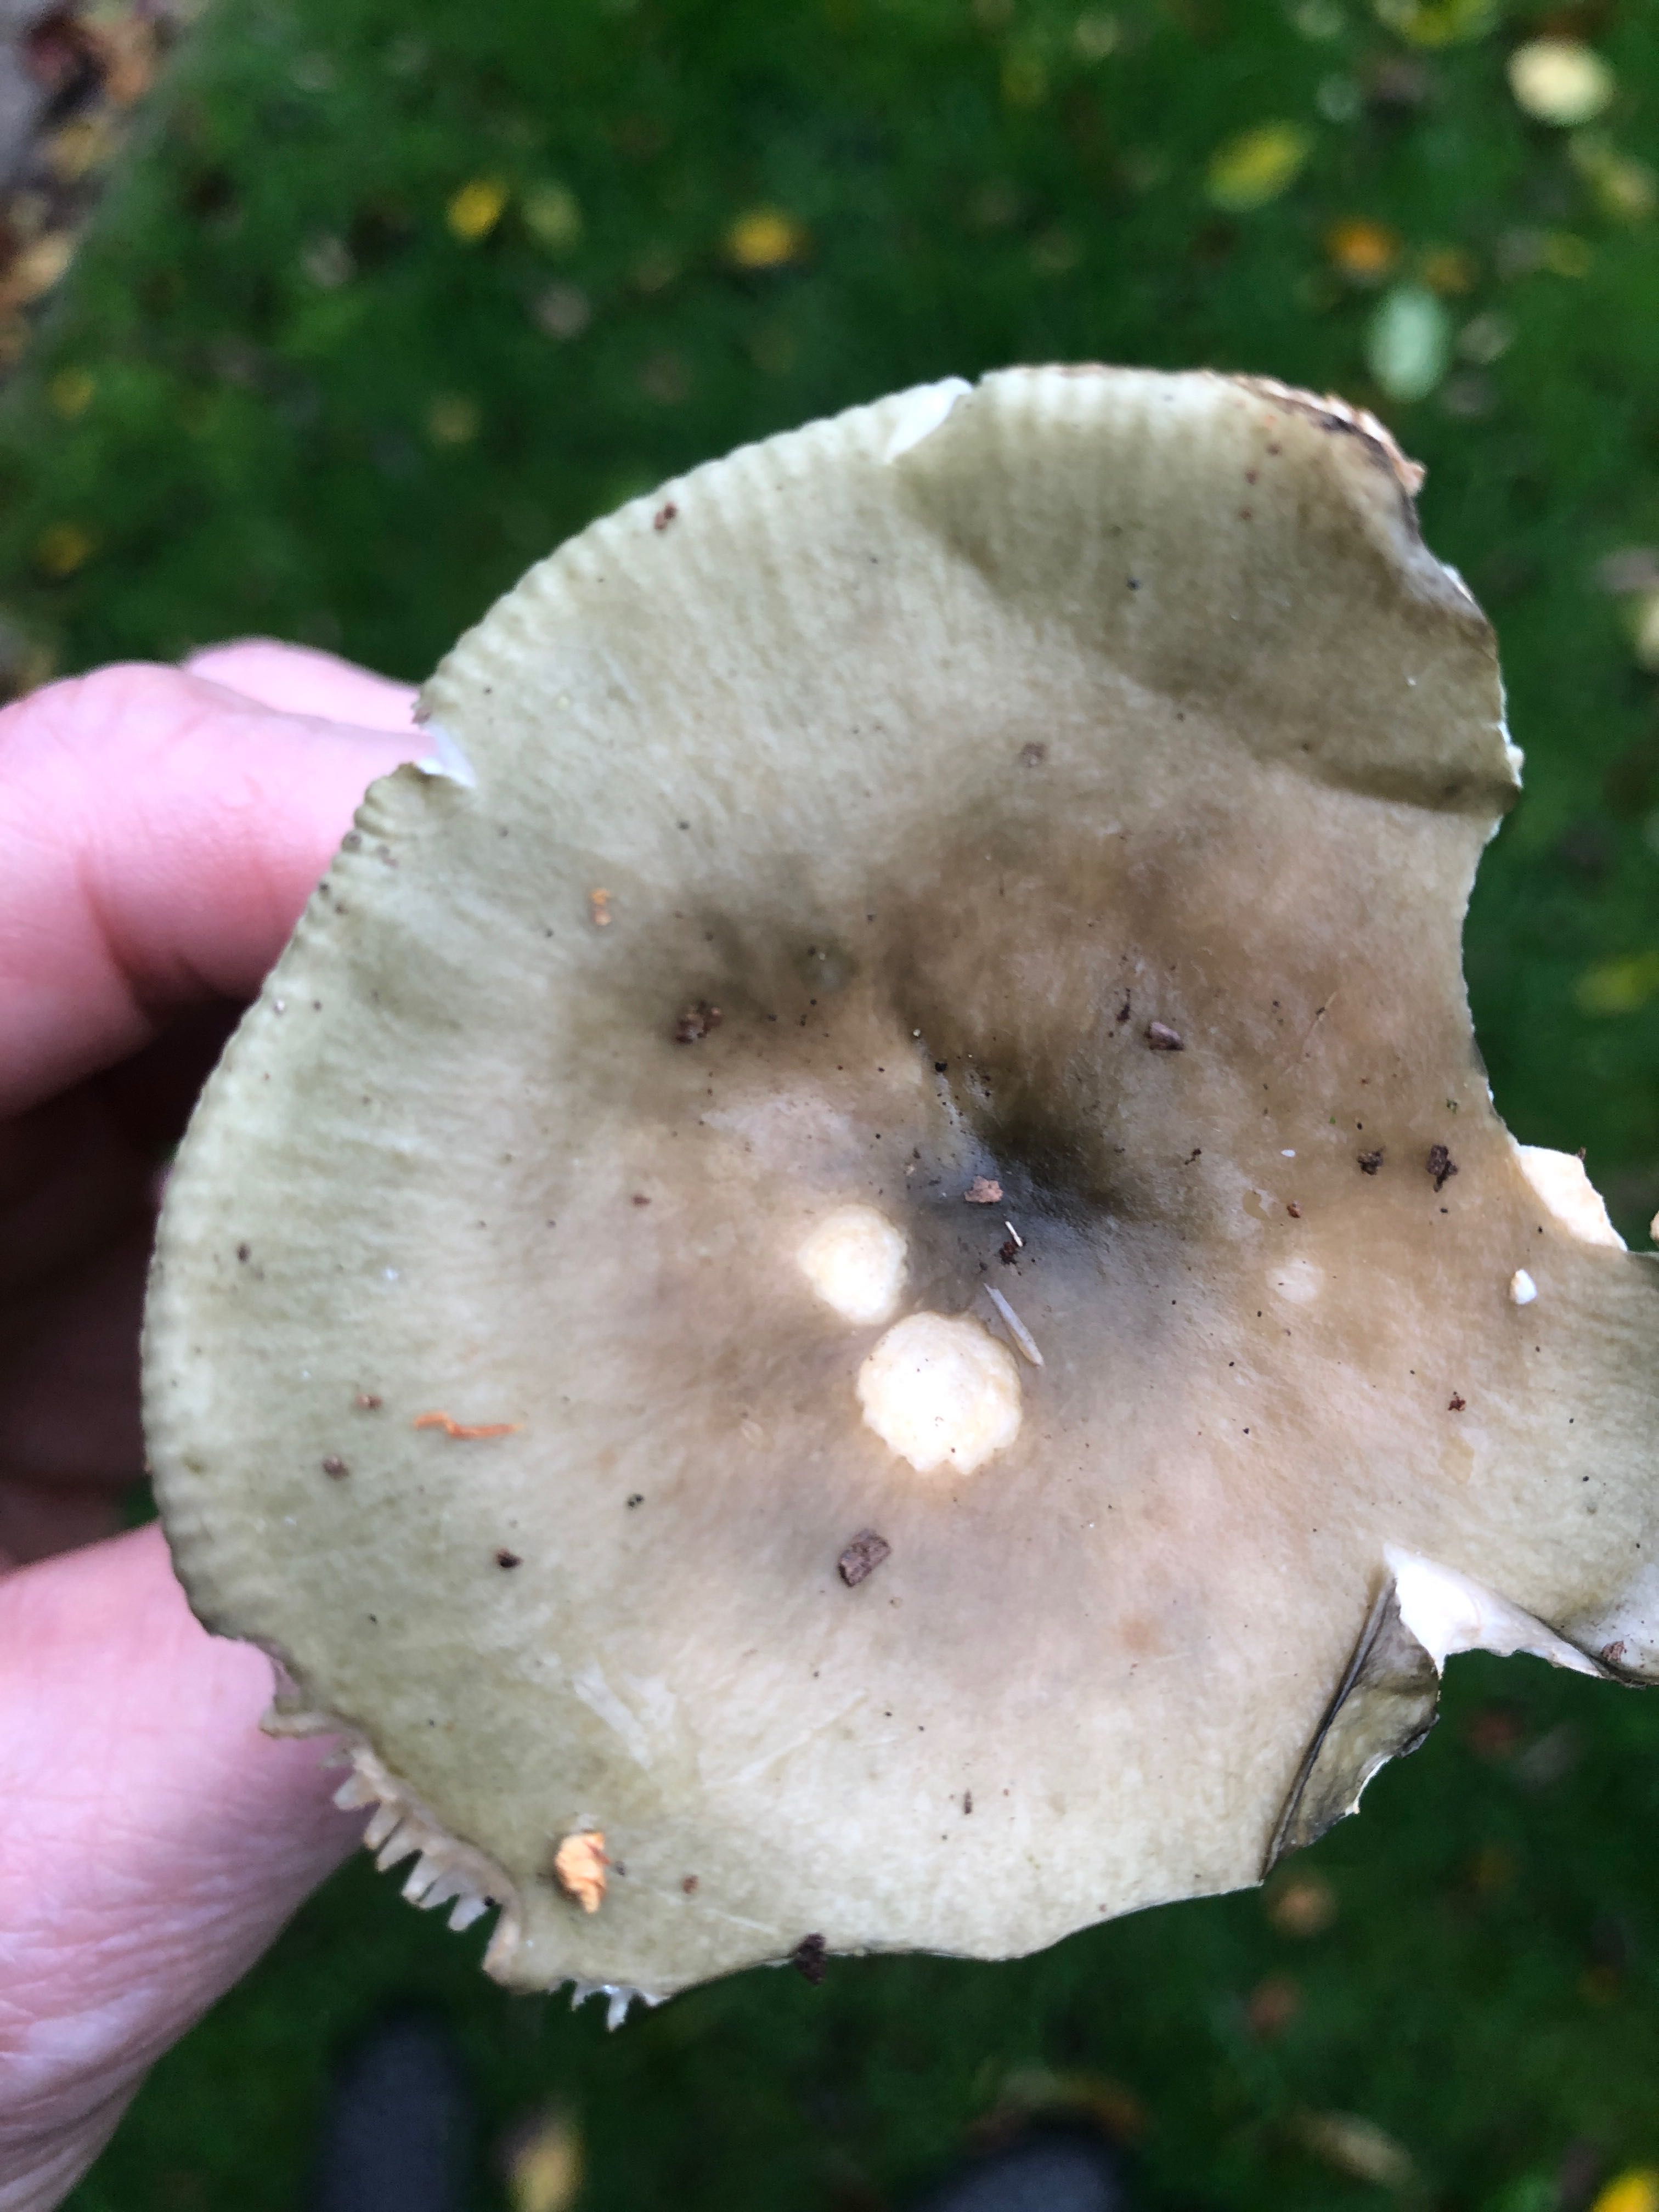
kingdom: Fungi
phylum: Basidiomycota
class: Agaricomycetes
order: Russulales
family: Russulaceae
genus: Russula
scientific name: Russula
